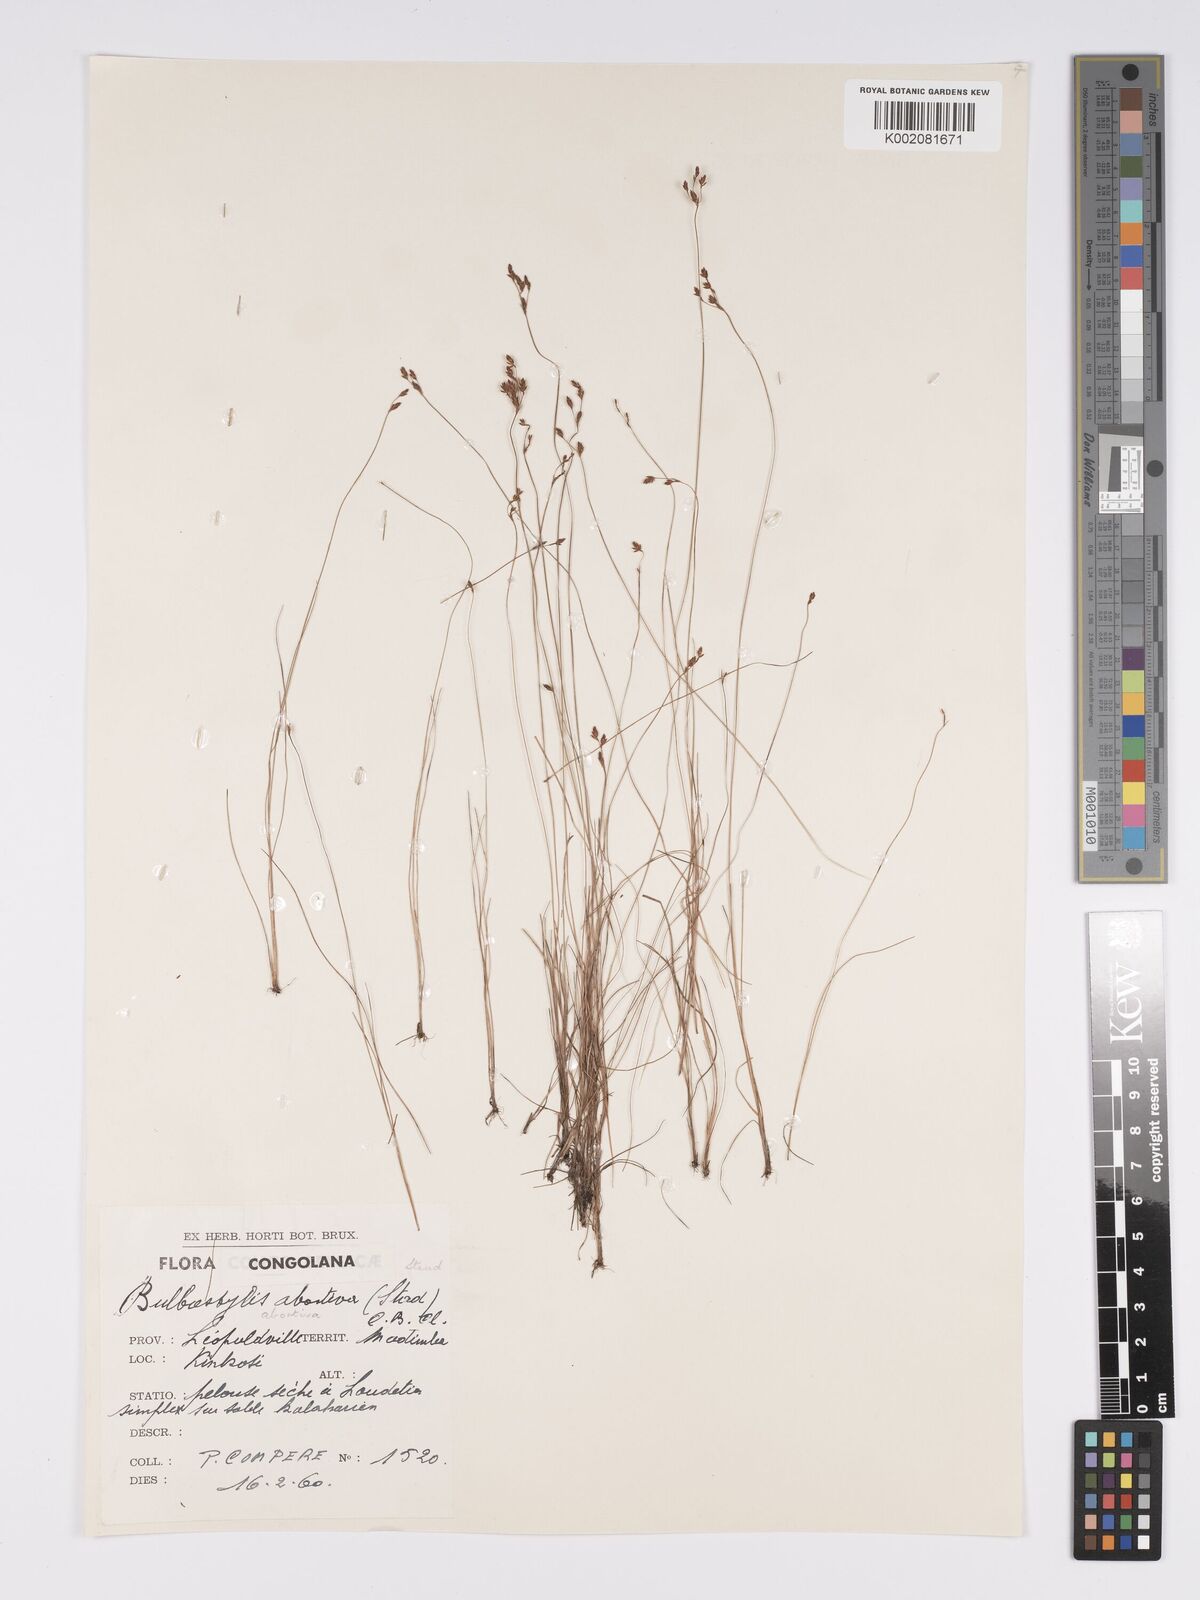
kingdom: Plantae
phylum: Tracheophyta
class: Liliopsida
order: Poales
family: Cyperaceae
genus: Bulbostylis
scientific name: Bulbostylis abortiva
